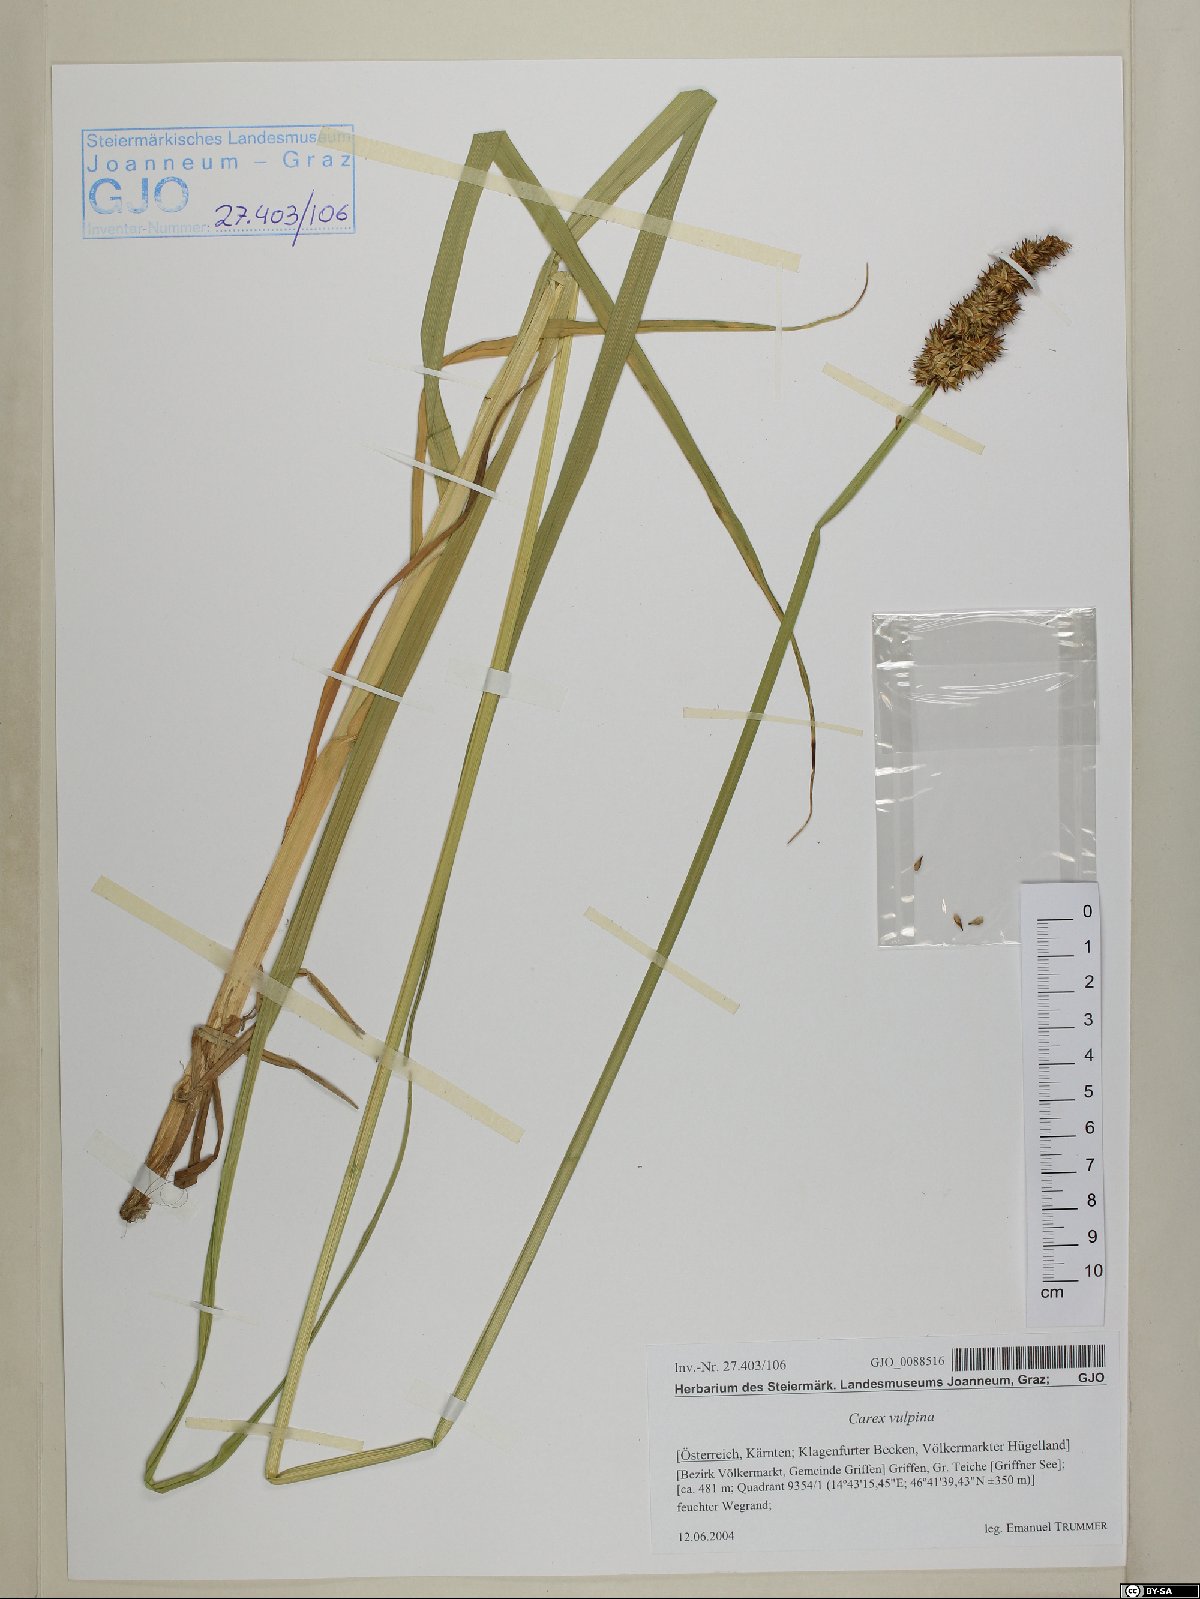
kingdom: Plantae
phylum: Tracheophyta
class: Liliopsida
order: Poales
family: Cyperaceae
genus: Carex
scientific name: Carex vulpina
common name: True fox-sedge
